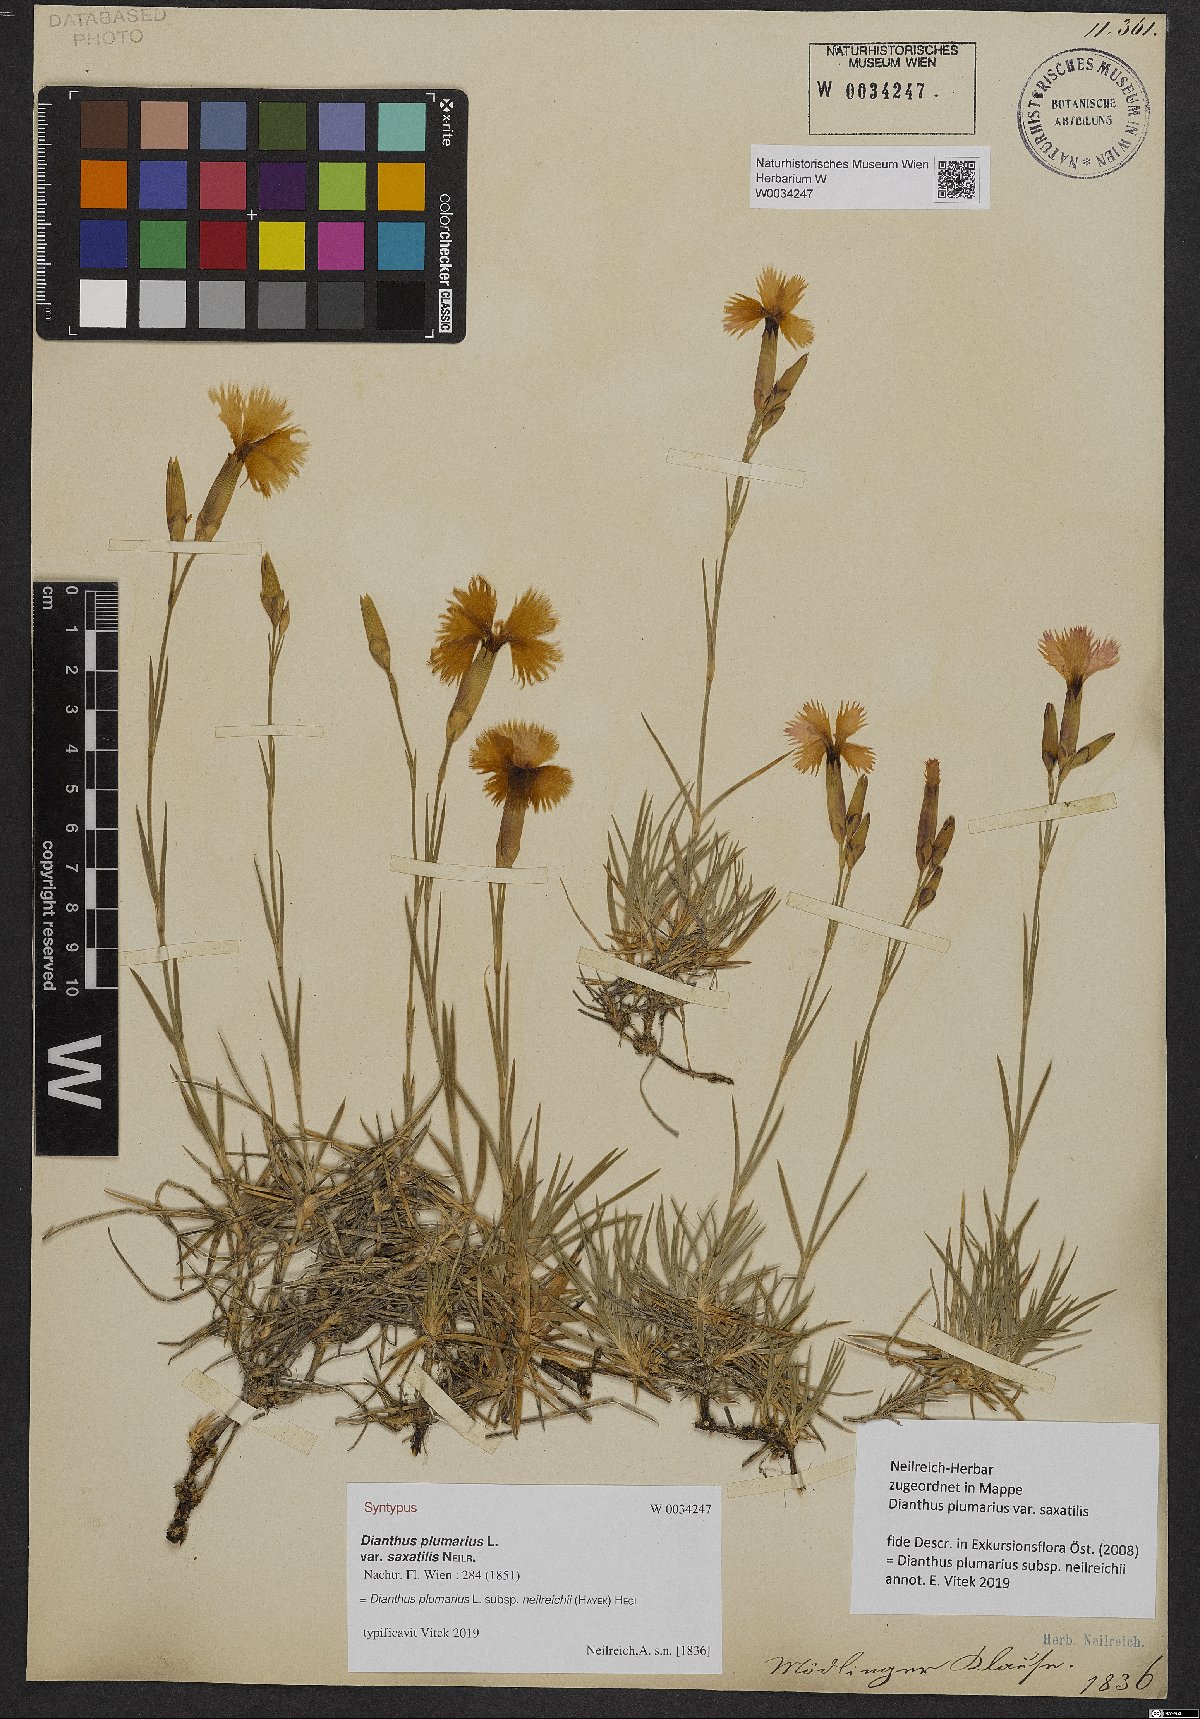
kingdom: Plantae
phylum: Tracheophyta
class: Magnoliopsida
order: Caryophyllales
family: Caryophyllaceae
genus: Dianthus
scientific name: Dianthus plumarius
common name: Pink
